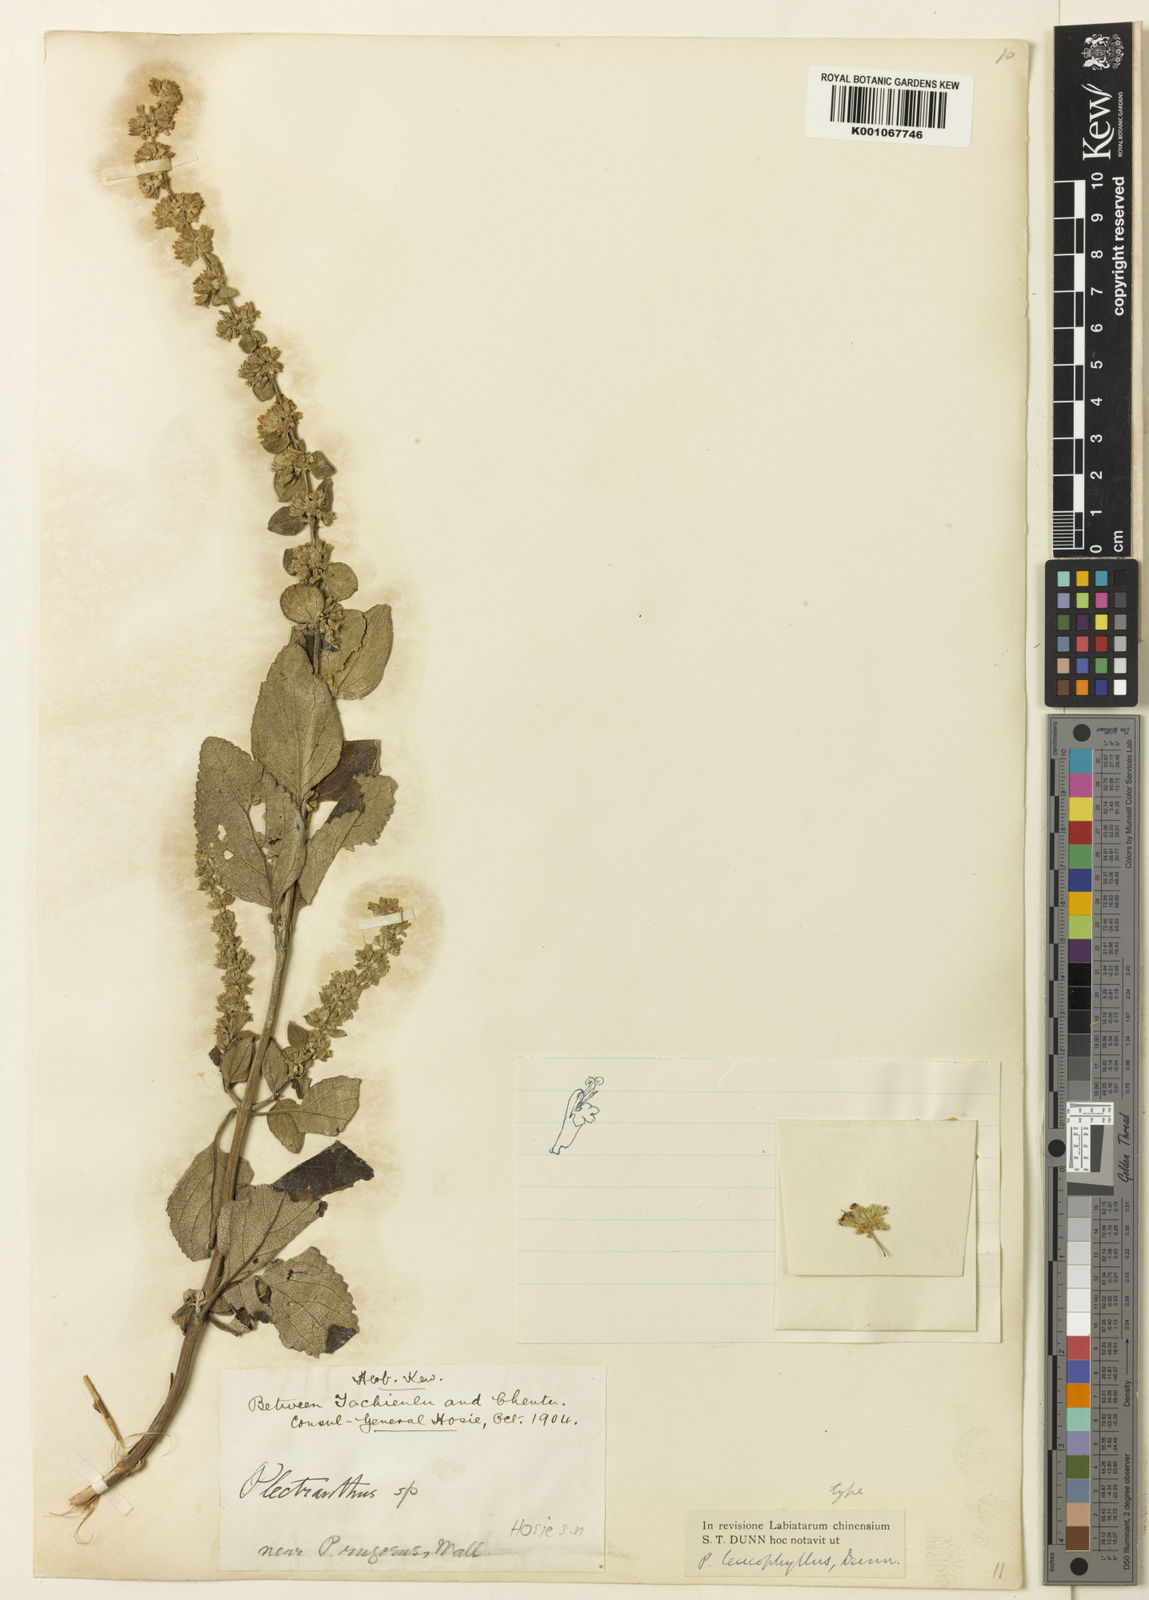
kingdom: Plantae
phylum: Tracheophyta
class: Magnoliopsida
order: Lamiales
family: Lamiaceae
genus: Isodon
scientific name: Isodon
